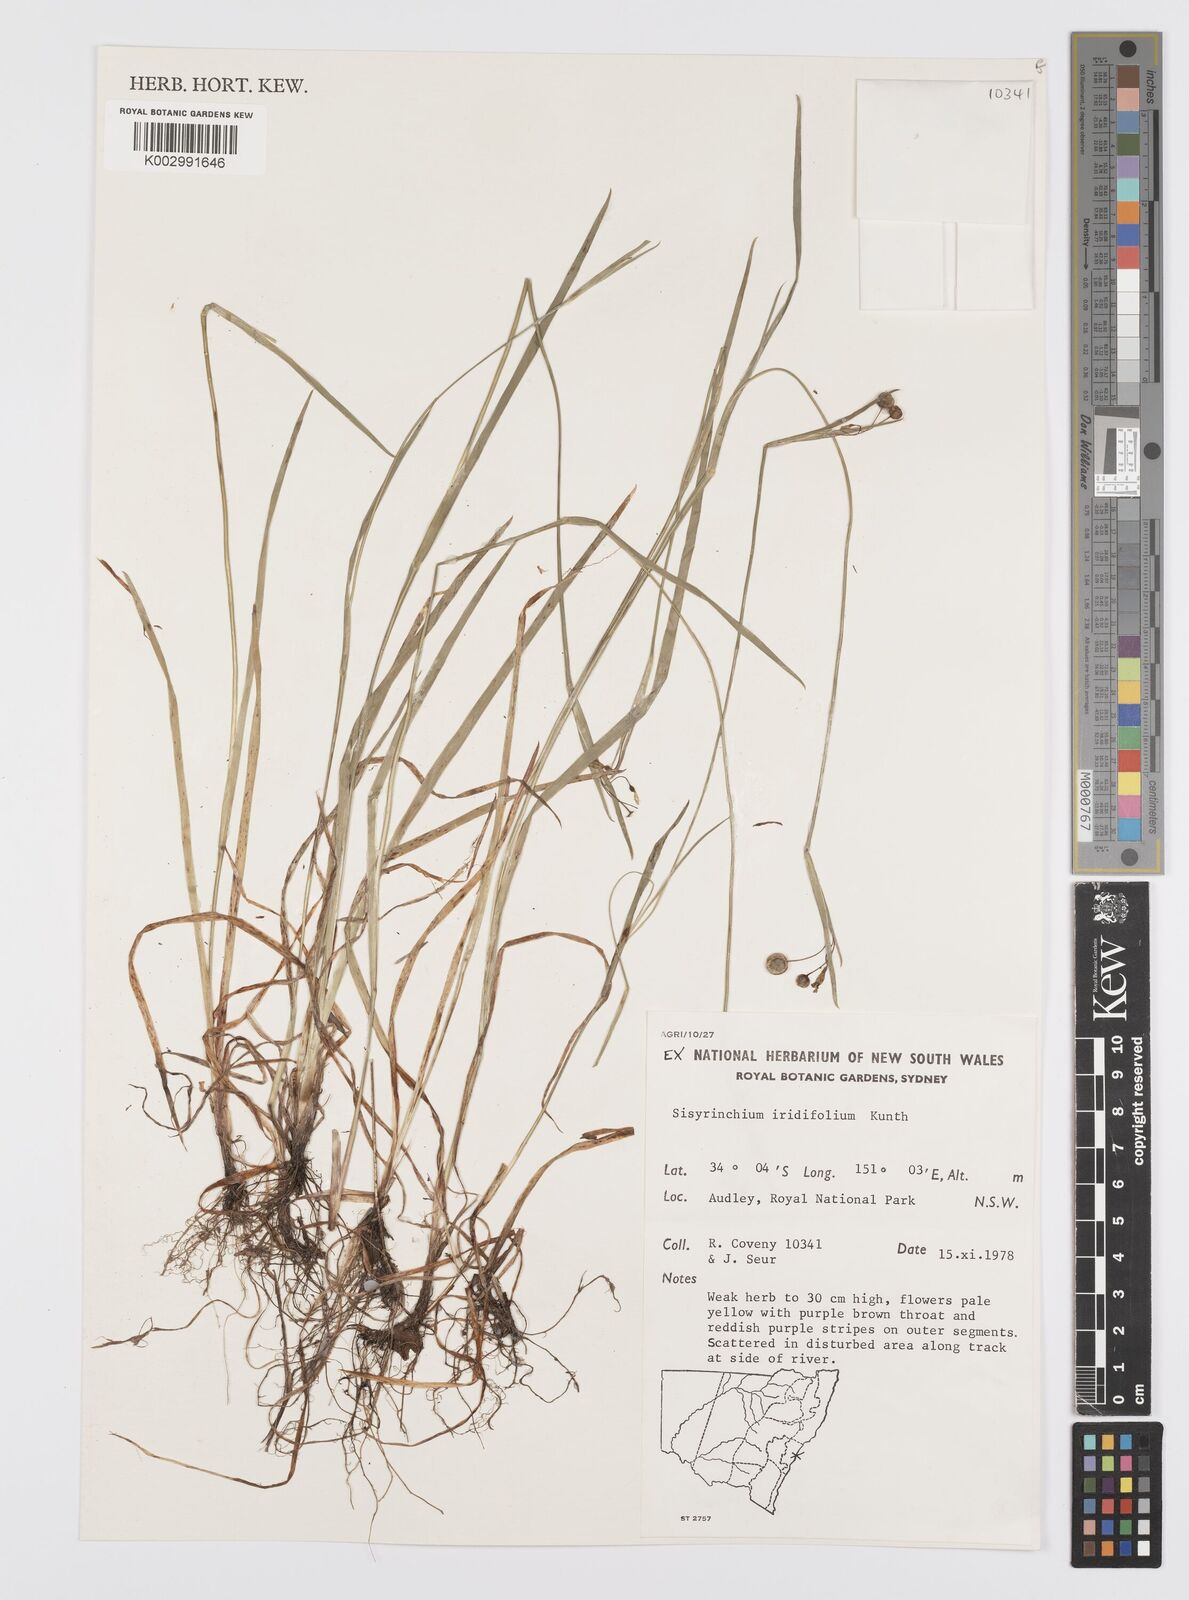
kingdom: Plantae
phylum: Tracheophyta
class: Liliopsida
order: Asparagales
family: Iridaceae
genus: Sisyrinchium
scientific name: Sisyrinchium micranthum
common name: Bermuda pigroot
